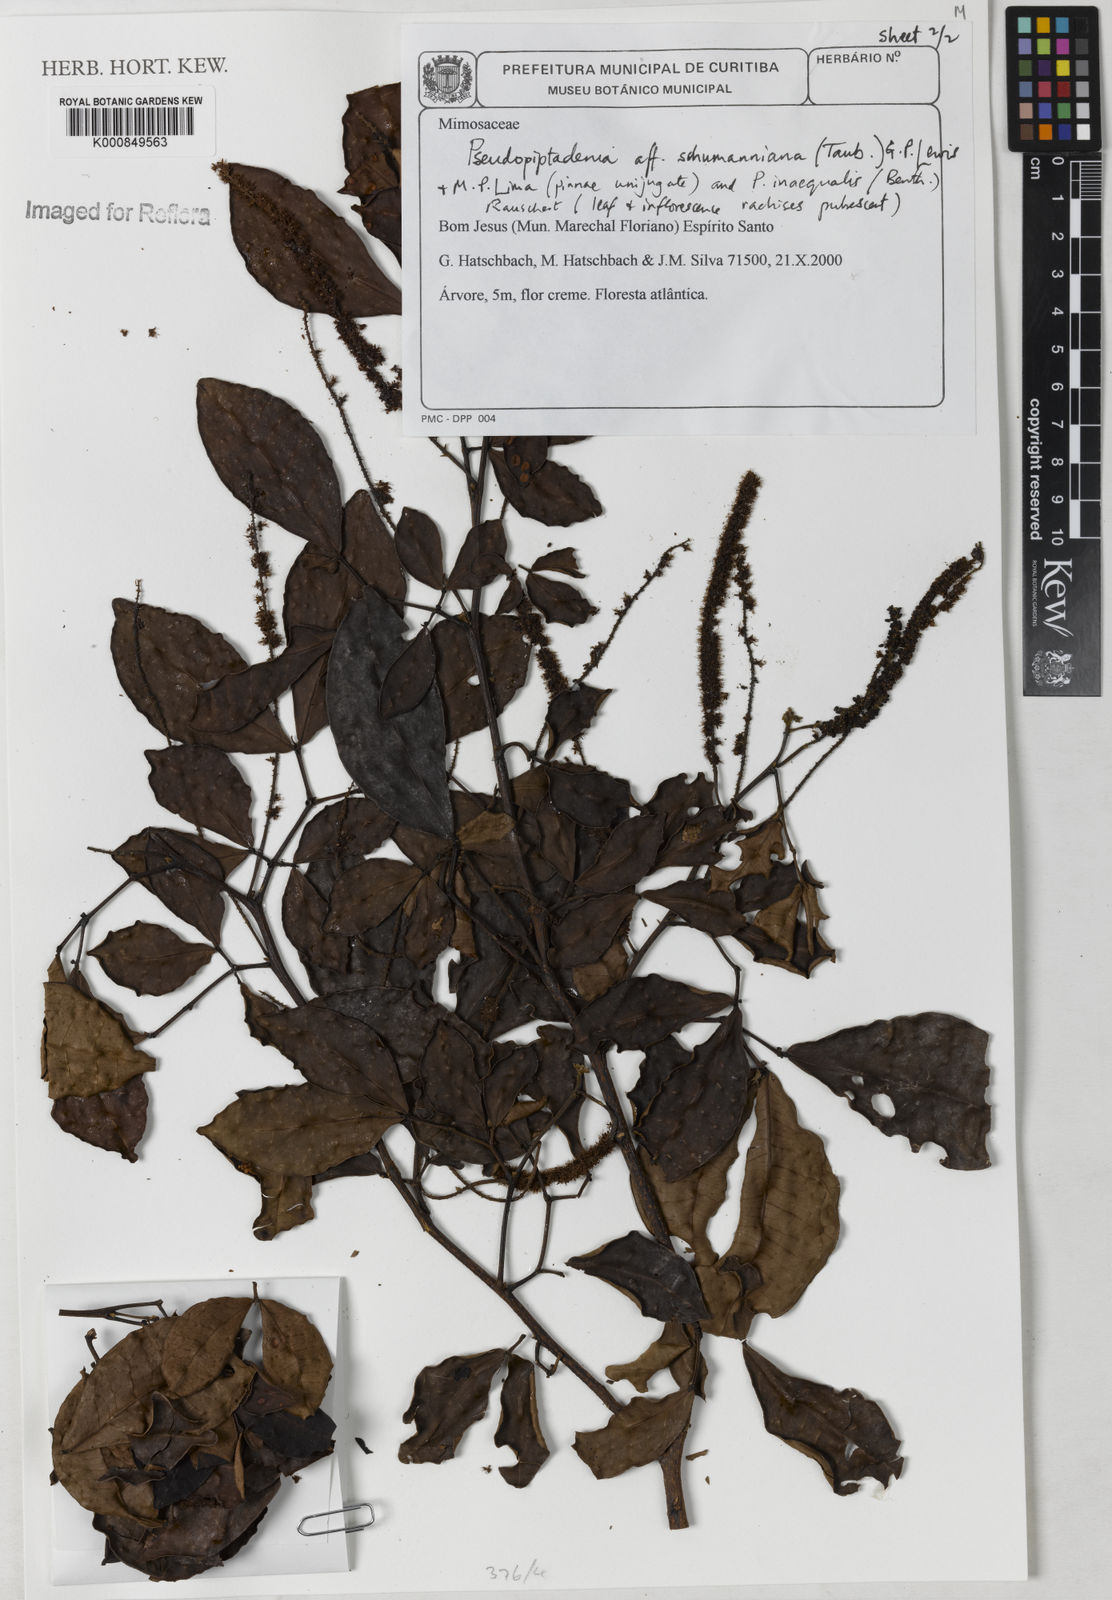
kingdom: Plantae
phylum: Tracheophyta
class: Magnoliopsida
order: Fabales
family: Fabaceae
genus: Pseudopiptadenia
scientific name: Pseudopiptadenia schumanniana
